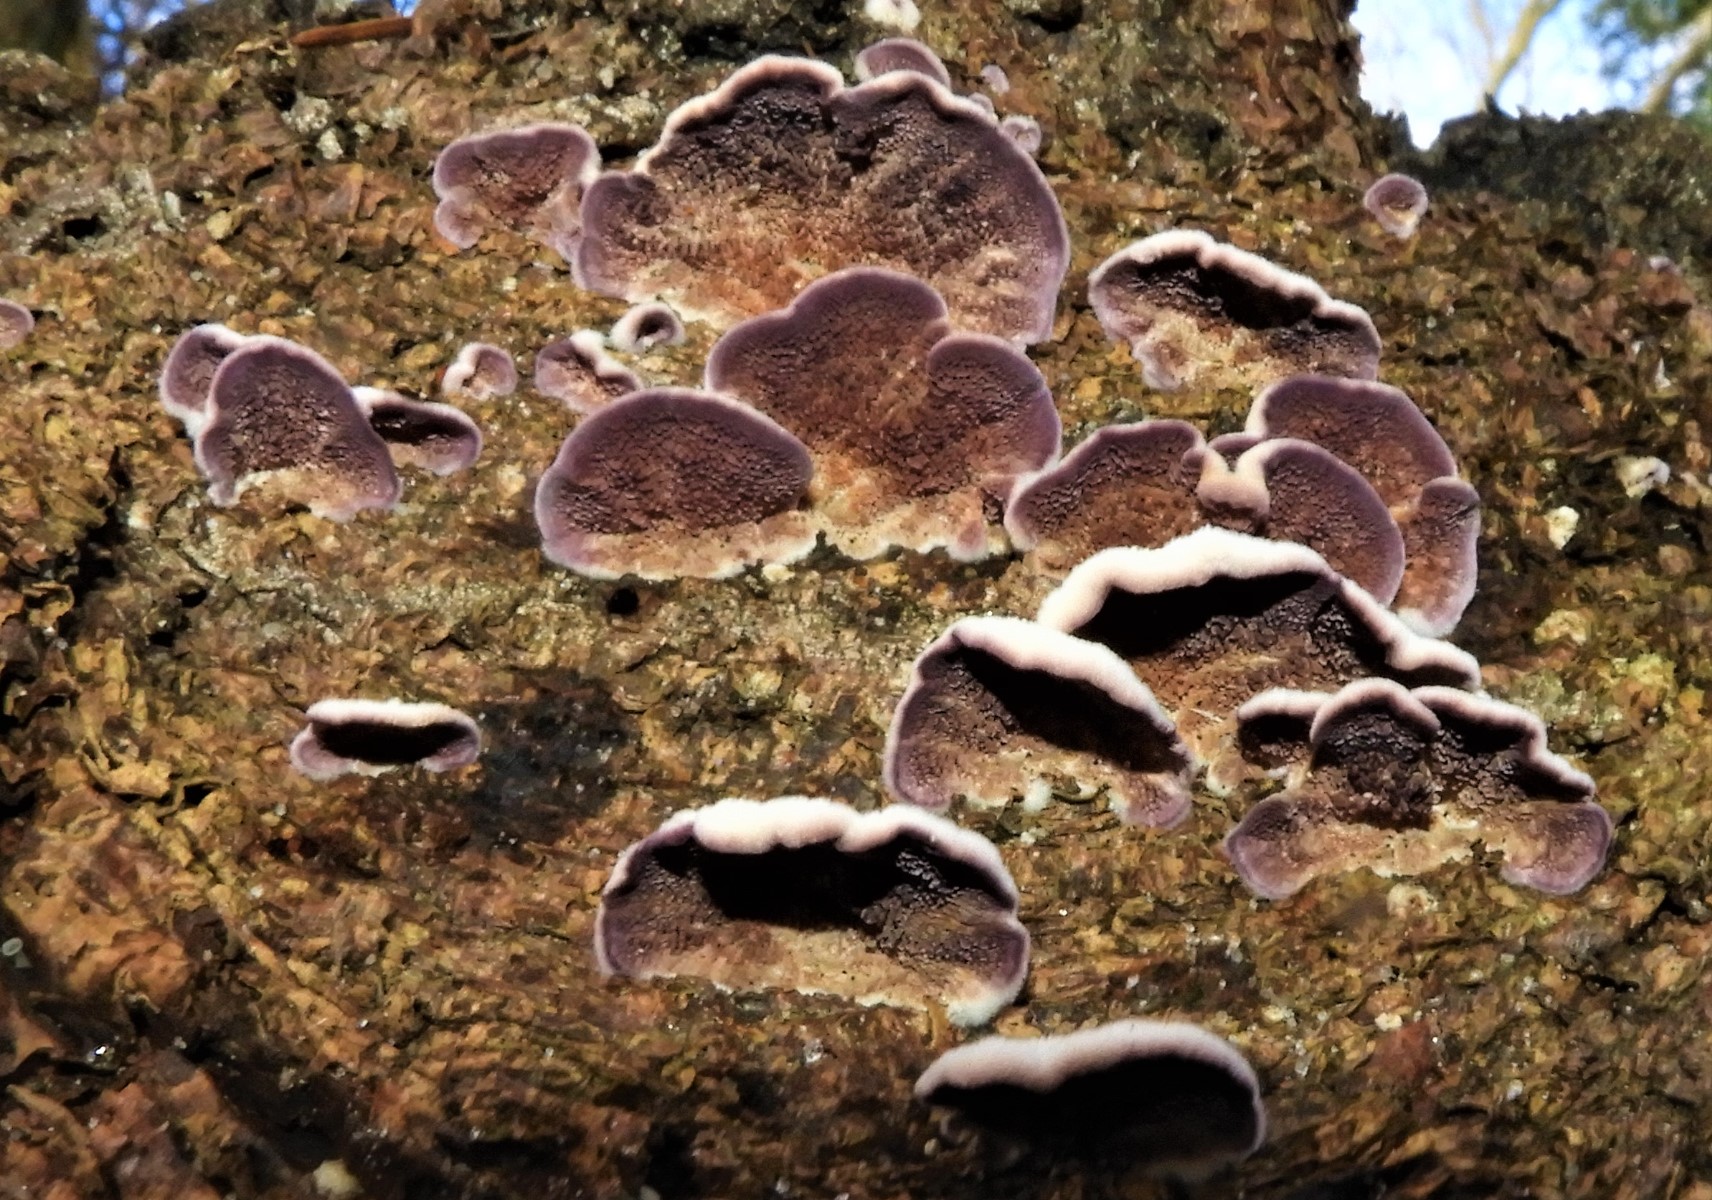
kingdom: Fungi
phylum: Basidiomycota
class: Agaricomycetes
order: Hymenochaetales
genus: Trichaptum
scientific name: Trichaptum abietinum
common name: almindelig violporesvamp
